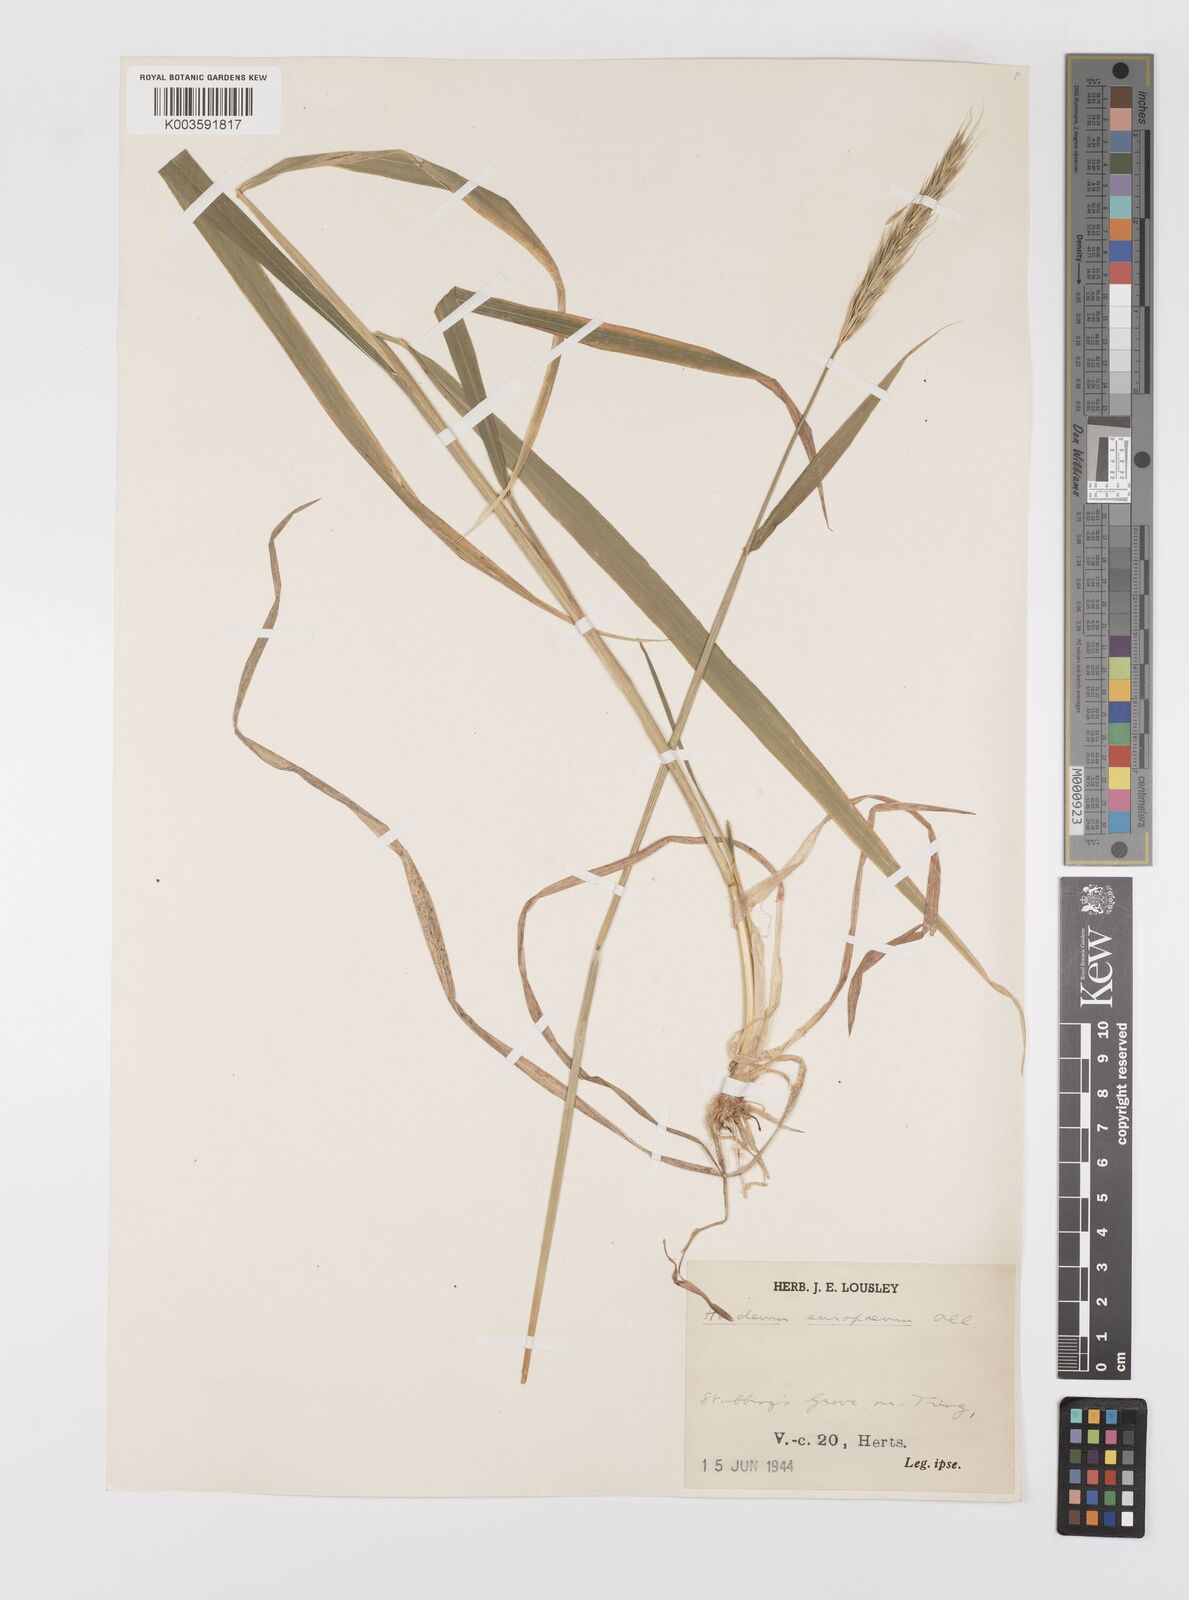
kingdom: Plantae
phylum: Tracheophyta
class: Liliopsida
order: Poales
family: Poaceae
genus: Hordelymus
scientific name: Hordelymus europaeus
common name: Wood-barley
